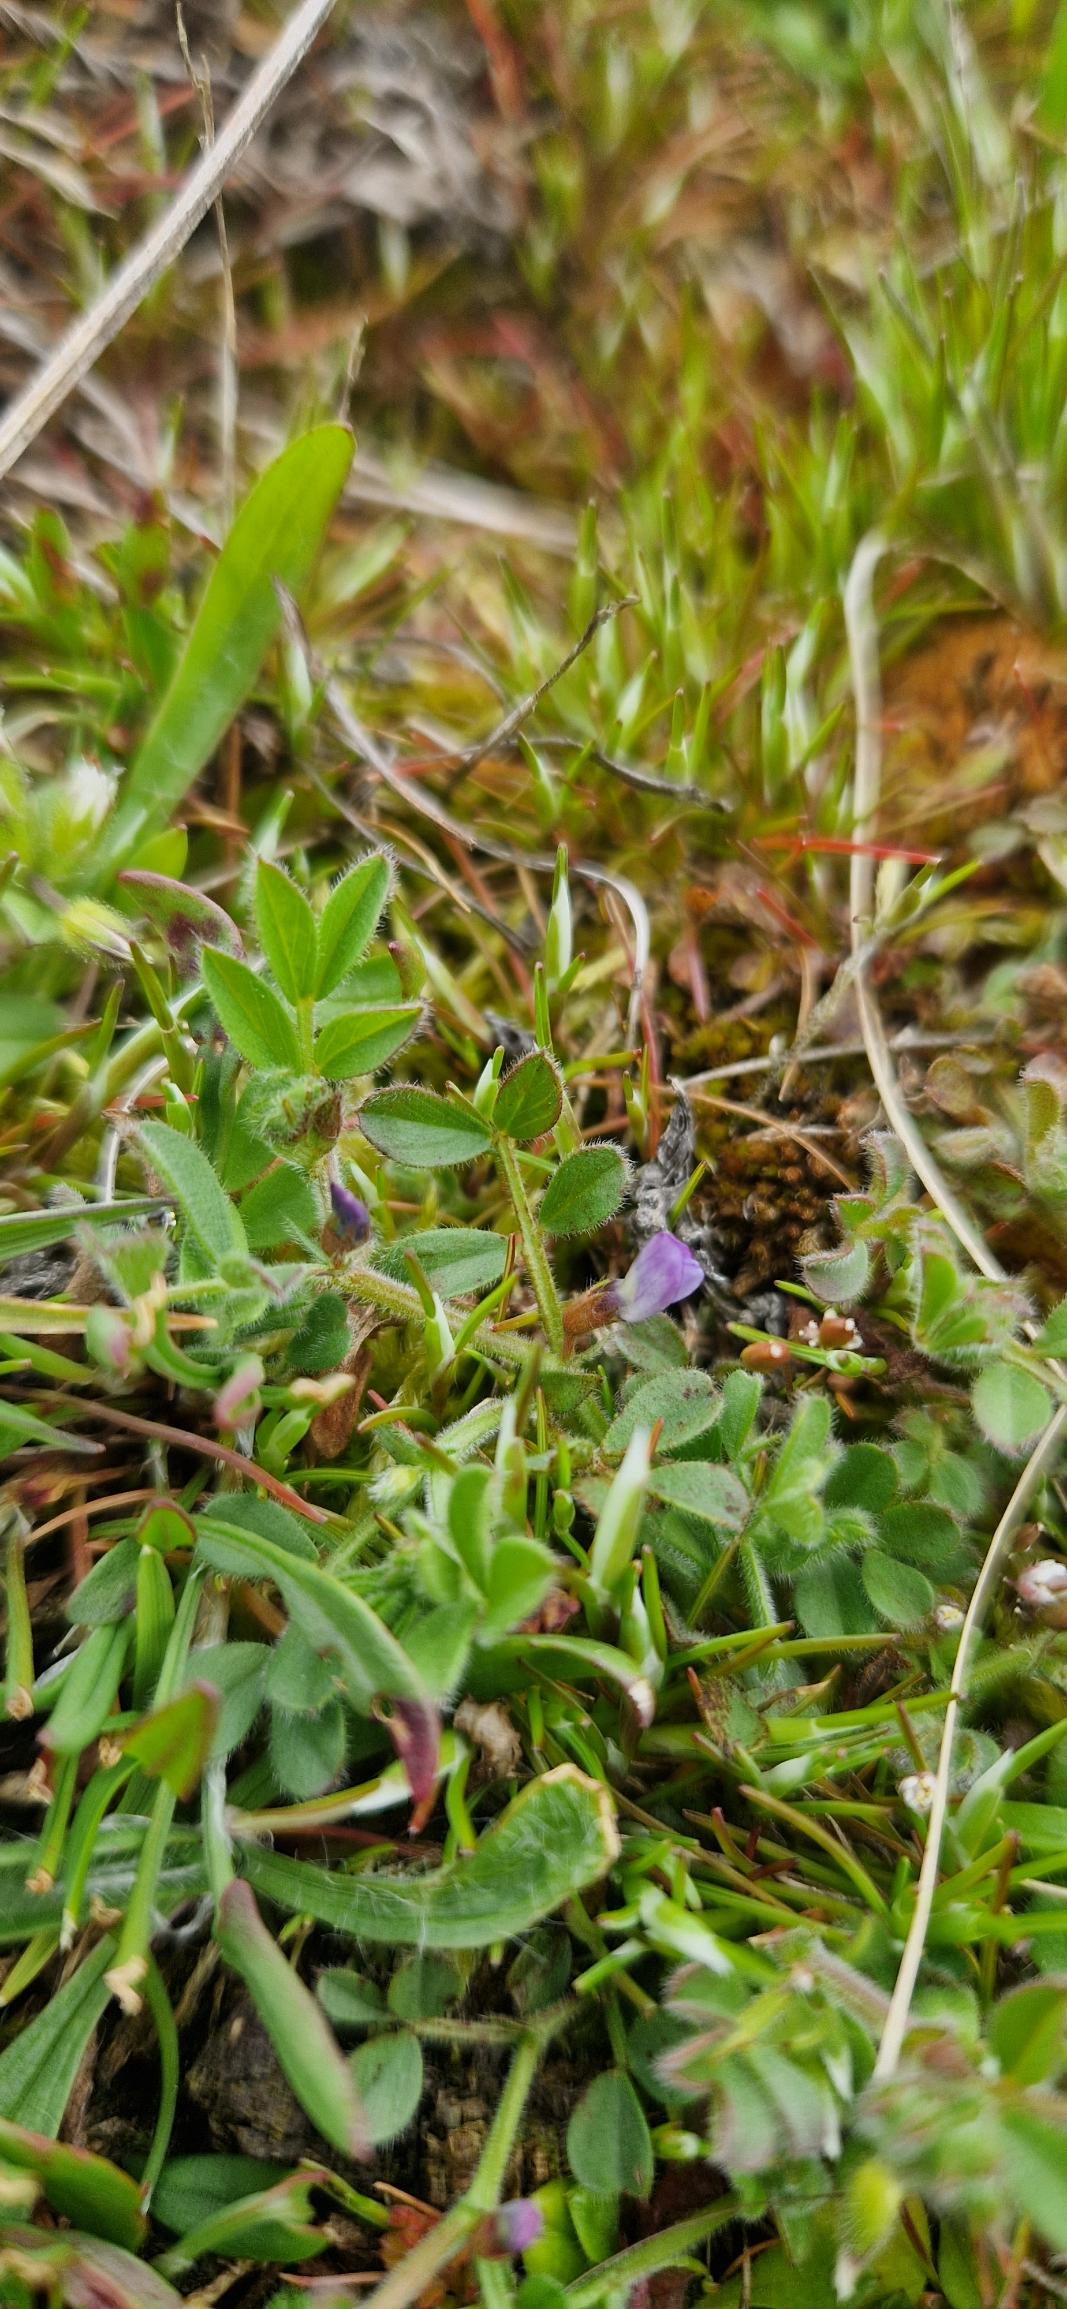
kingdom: Plantae
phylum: Tracheophyta
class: Magnoliopsida
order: Fabales
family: Fabaceae
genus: Vicia
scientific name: Vicia lathyroides
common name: Vår-vikke
